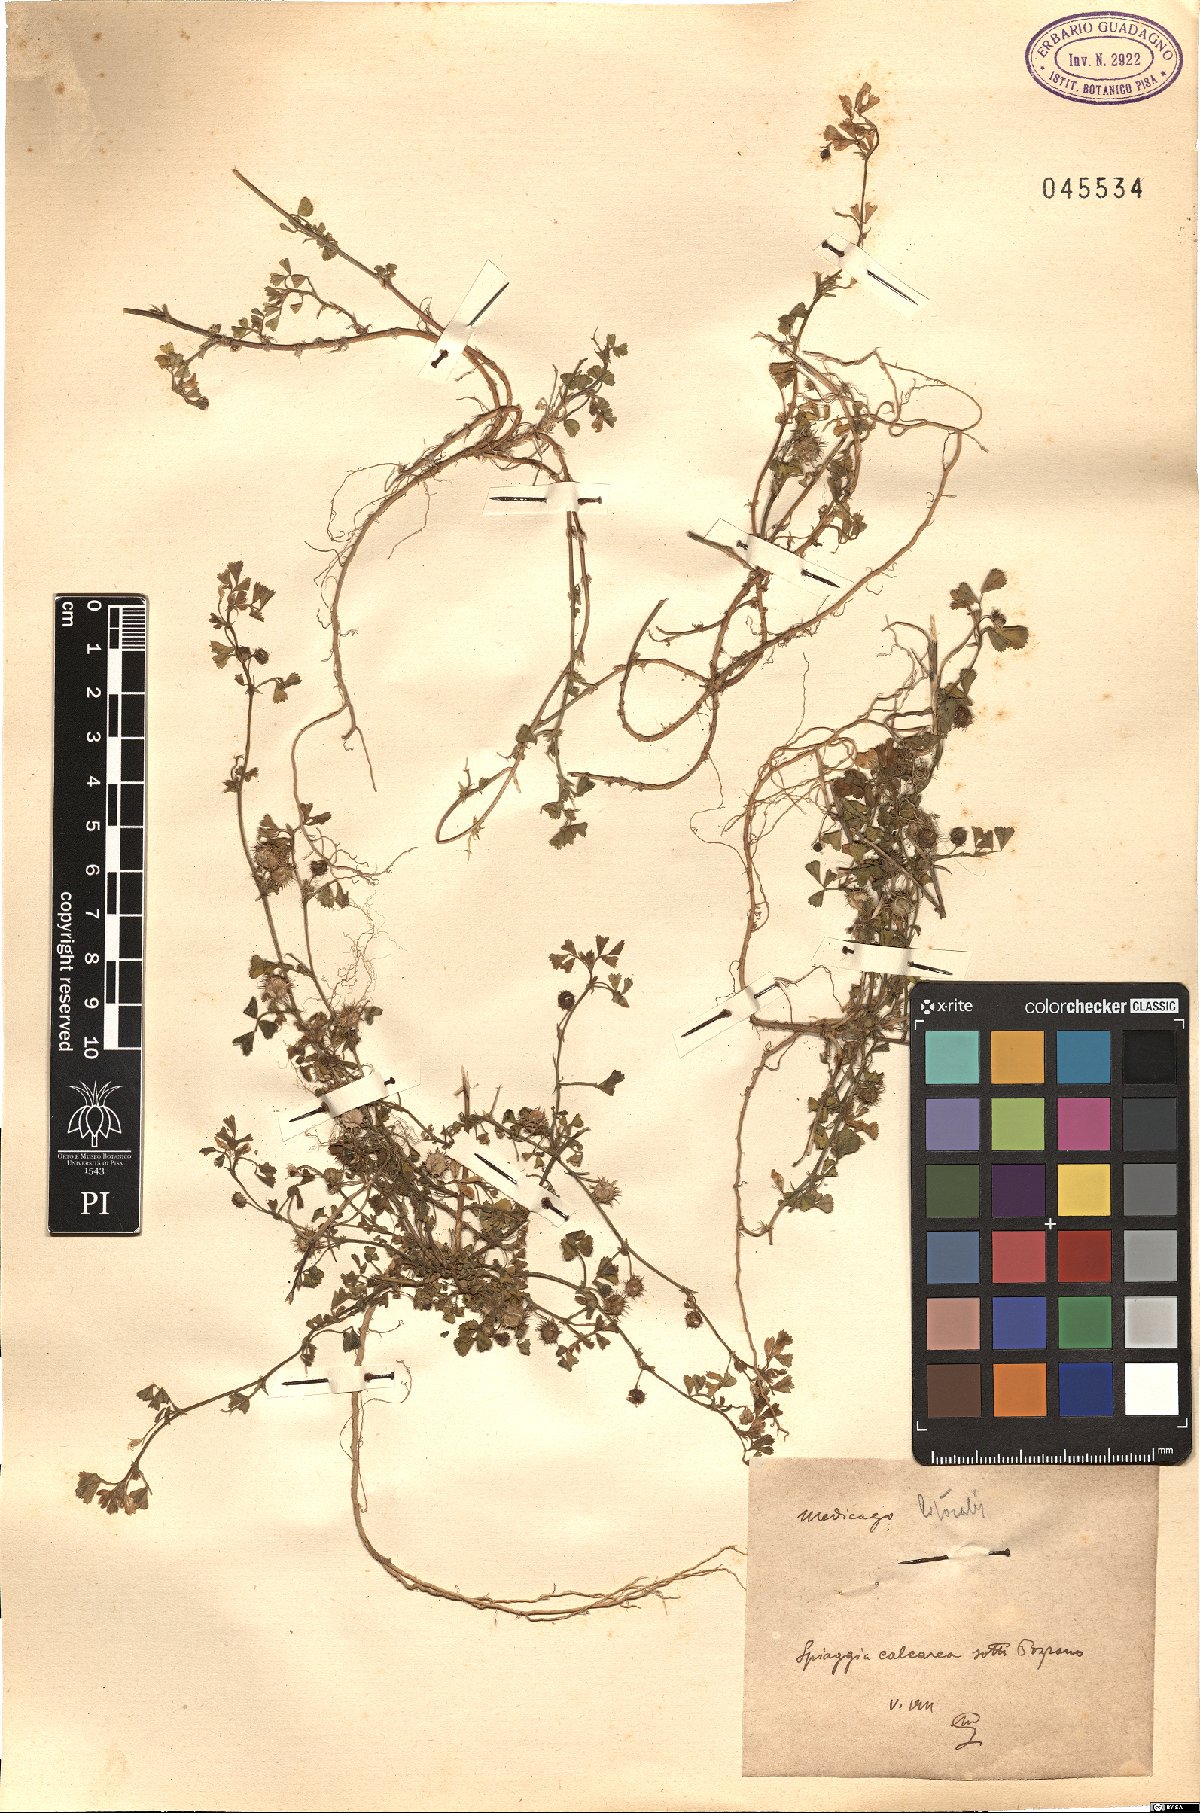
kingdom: Plantae
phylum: Tracheophyta
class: Magnoliopsida
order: Fabales
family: Fabaceae
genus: Medicago
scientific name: Medicago littoralis
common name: Shore medick
